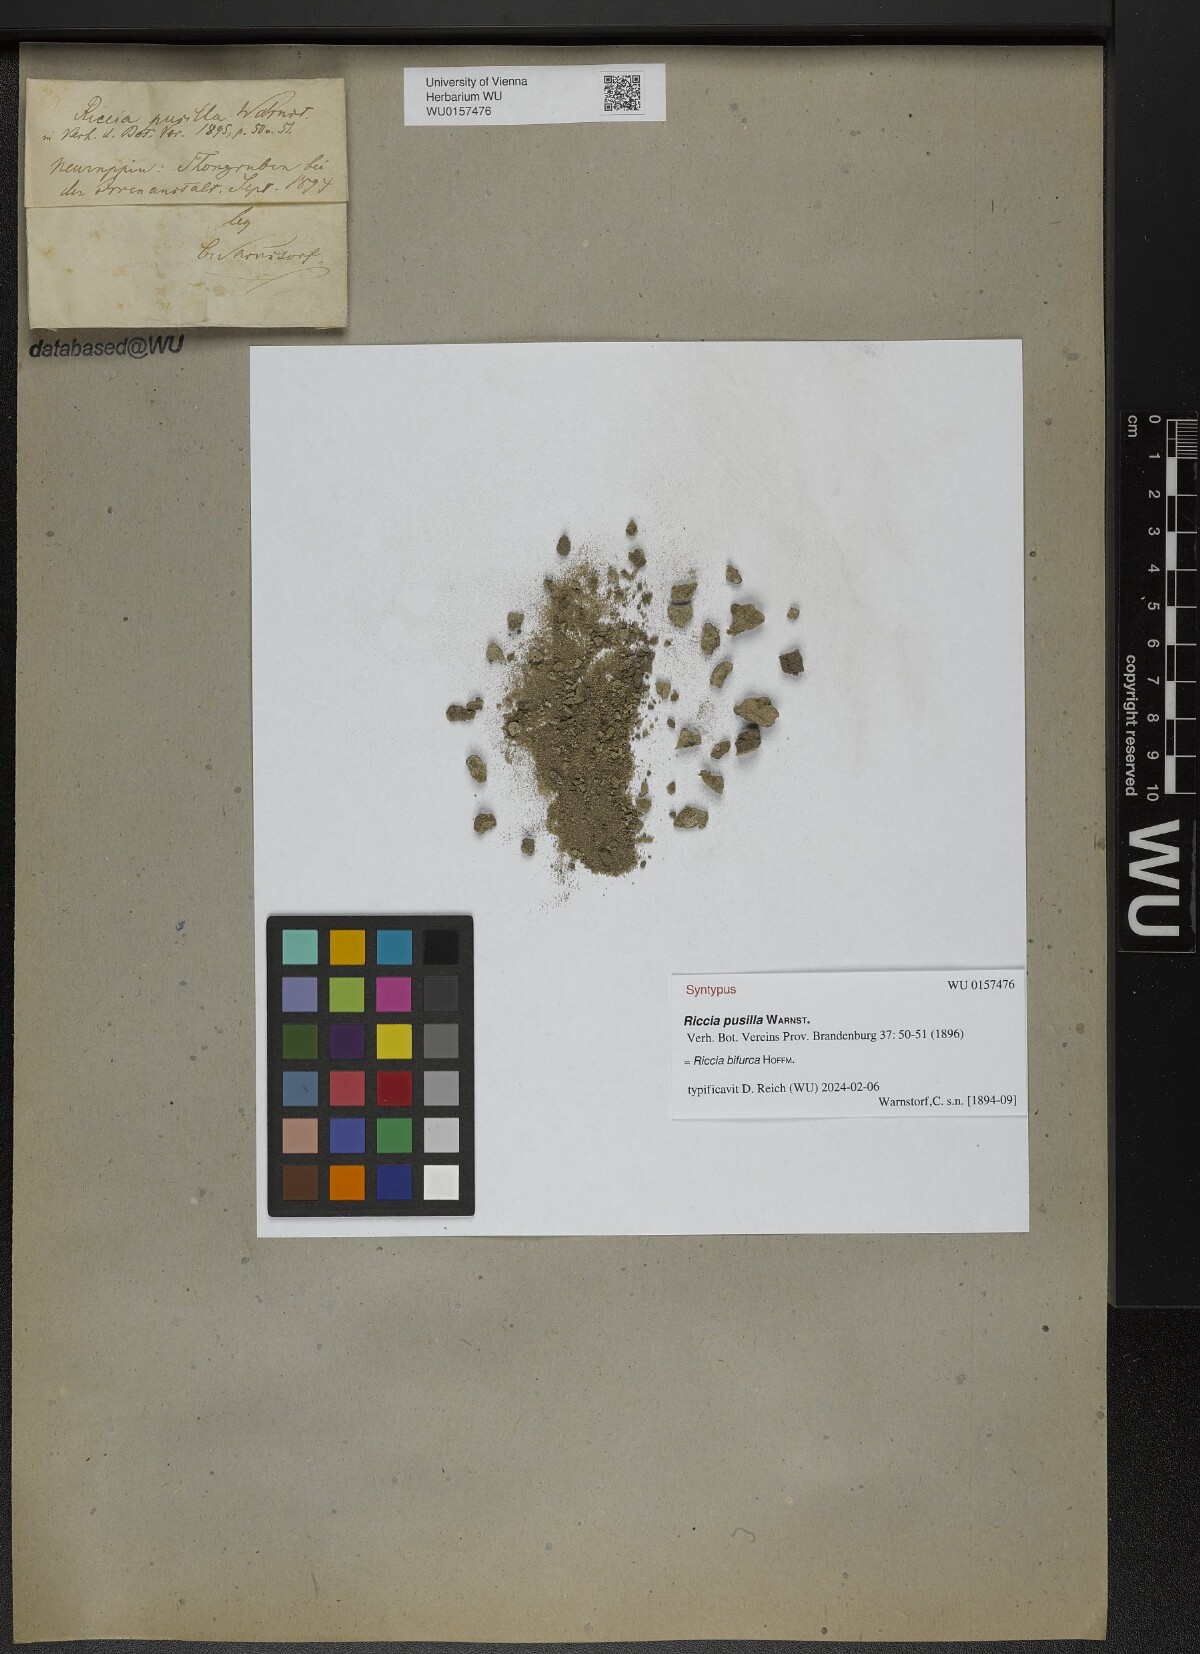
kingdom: Plantae
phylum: Marchantiophyta
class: Marchantiopsida
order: Marchantiales
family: Ricciaceae
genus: Riccia
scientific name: Riccia bifurca
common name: Lizard crystalwort
